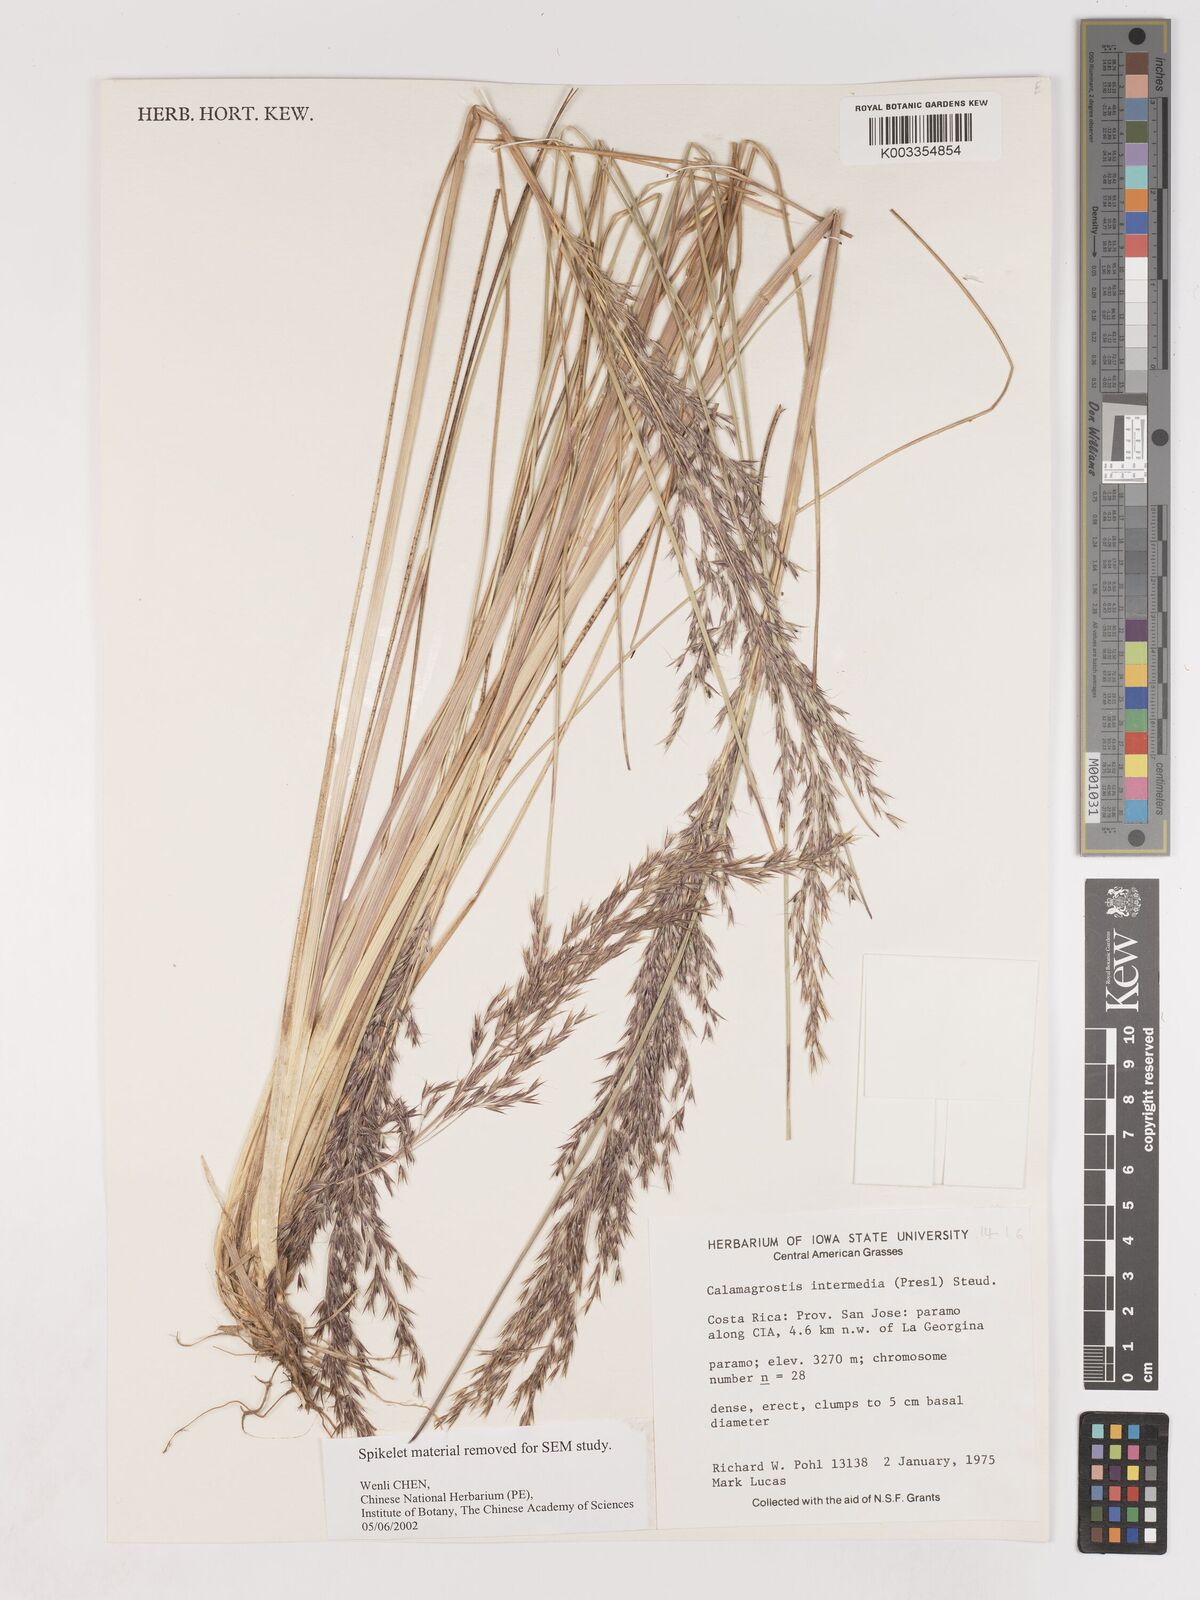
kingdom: Plantae
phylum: Tracheophyta
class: Liliopsida
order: Poales
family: Poaceae
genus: Cinnagrostis
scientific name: Cinnagrostis intermedia
